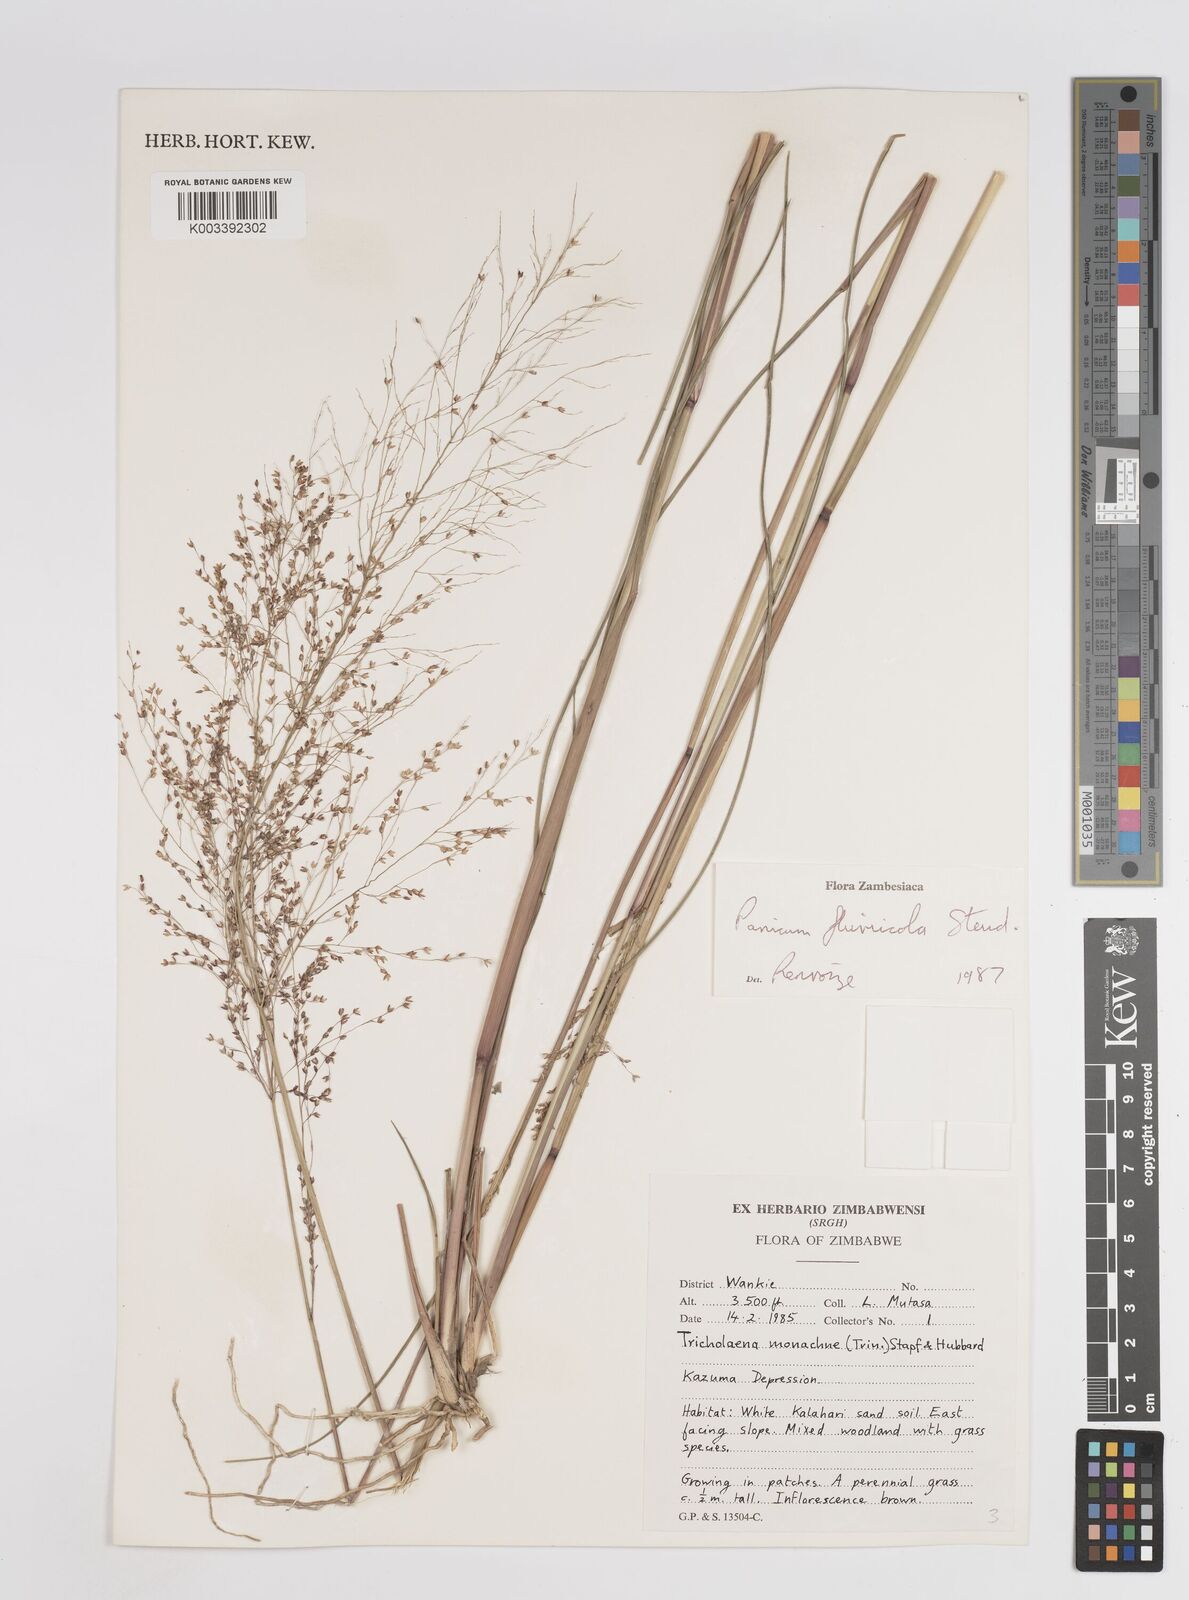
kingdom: Plantae
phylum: Tracheophyta
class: Liliopsida
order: Poales
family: Poaceae
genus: Panicum
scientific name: Panicum fluviicola
